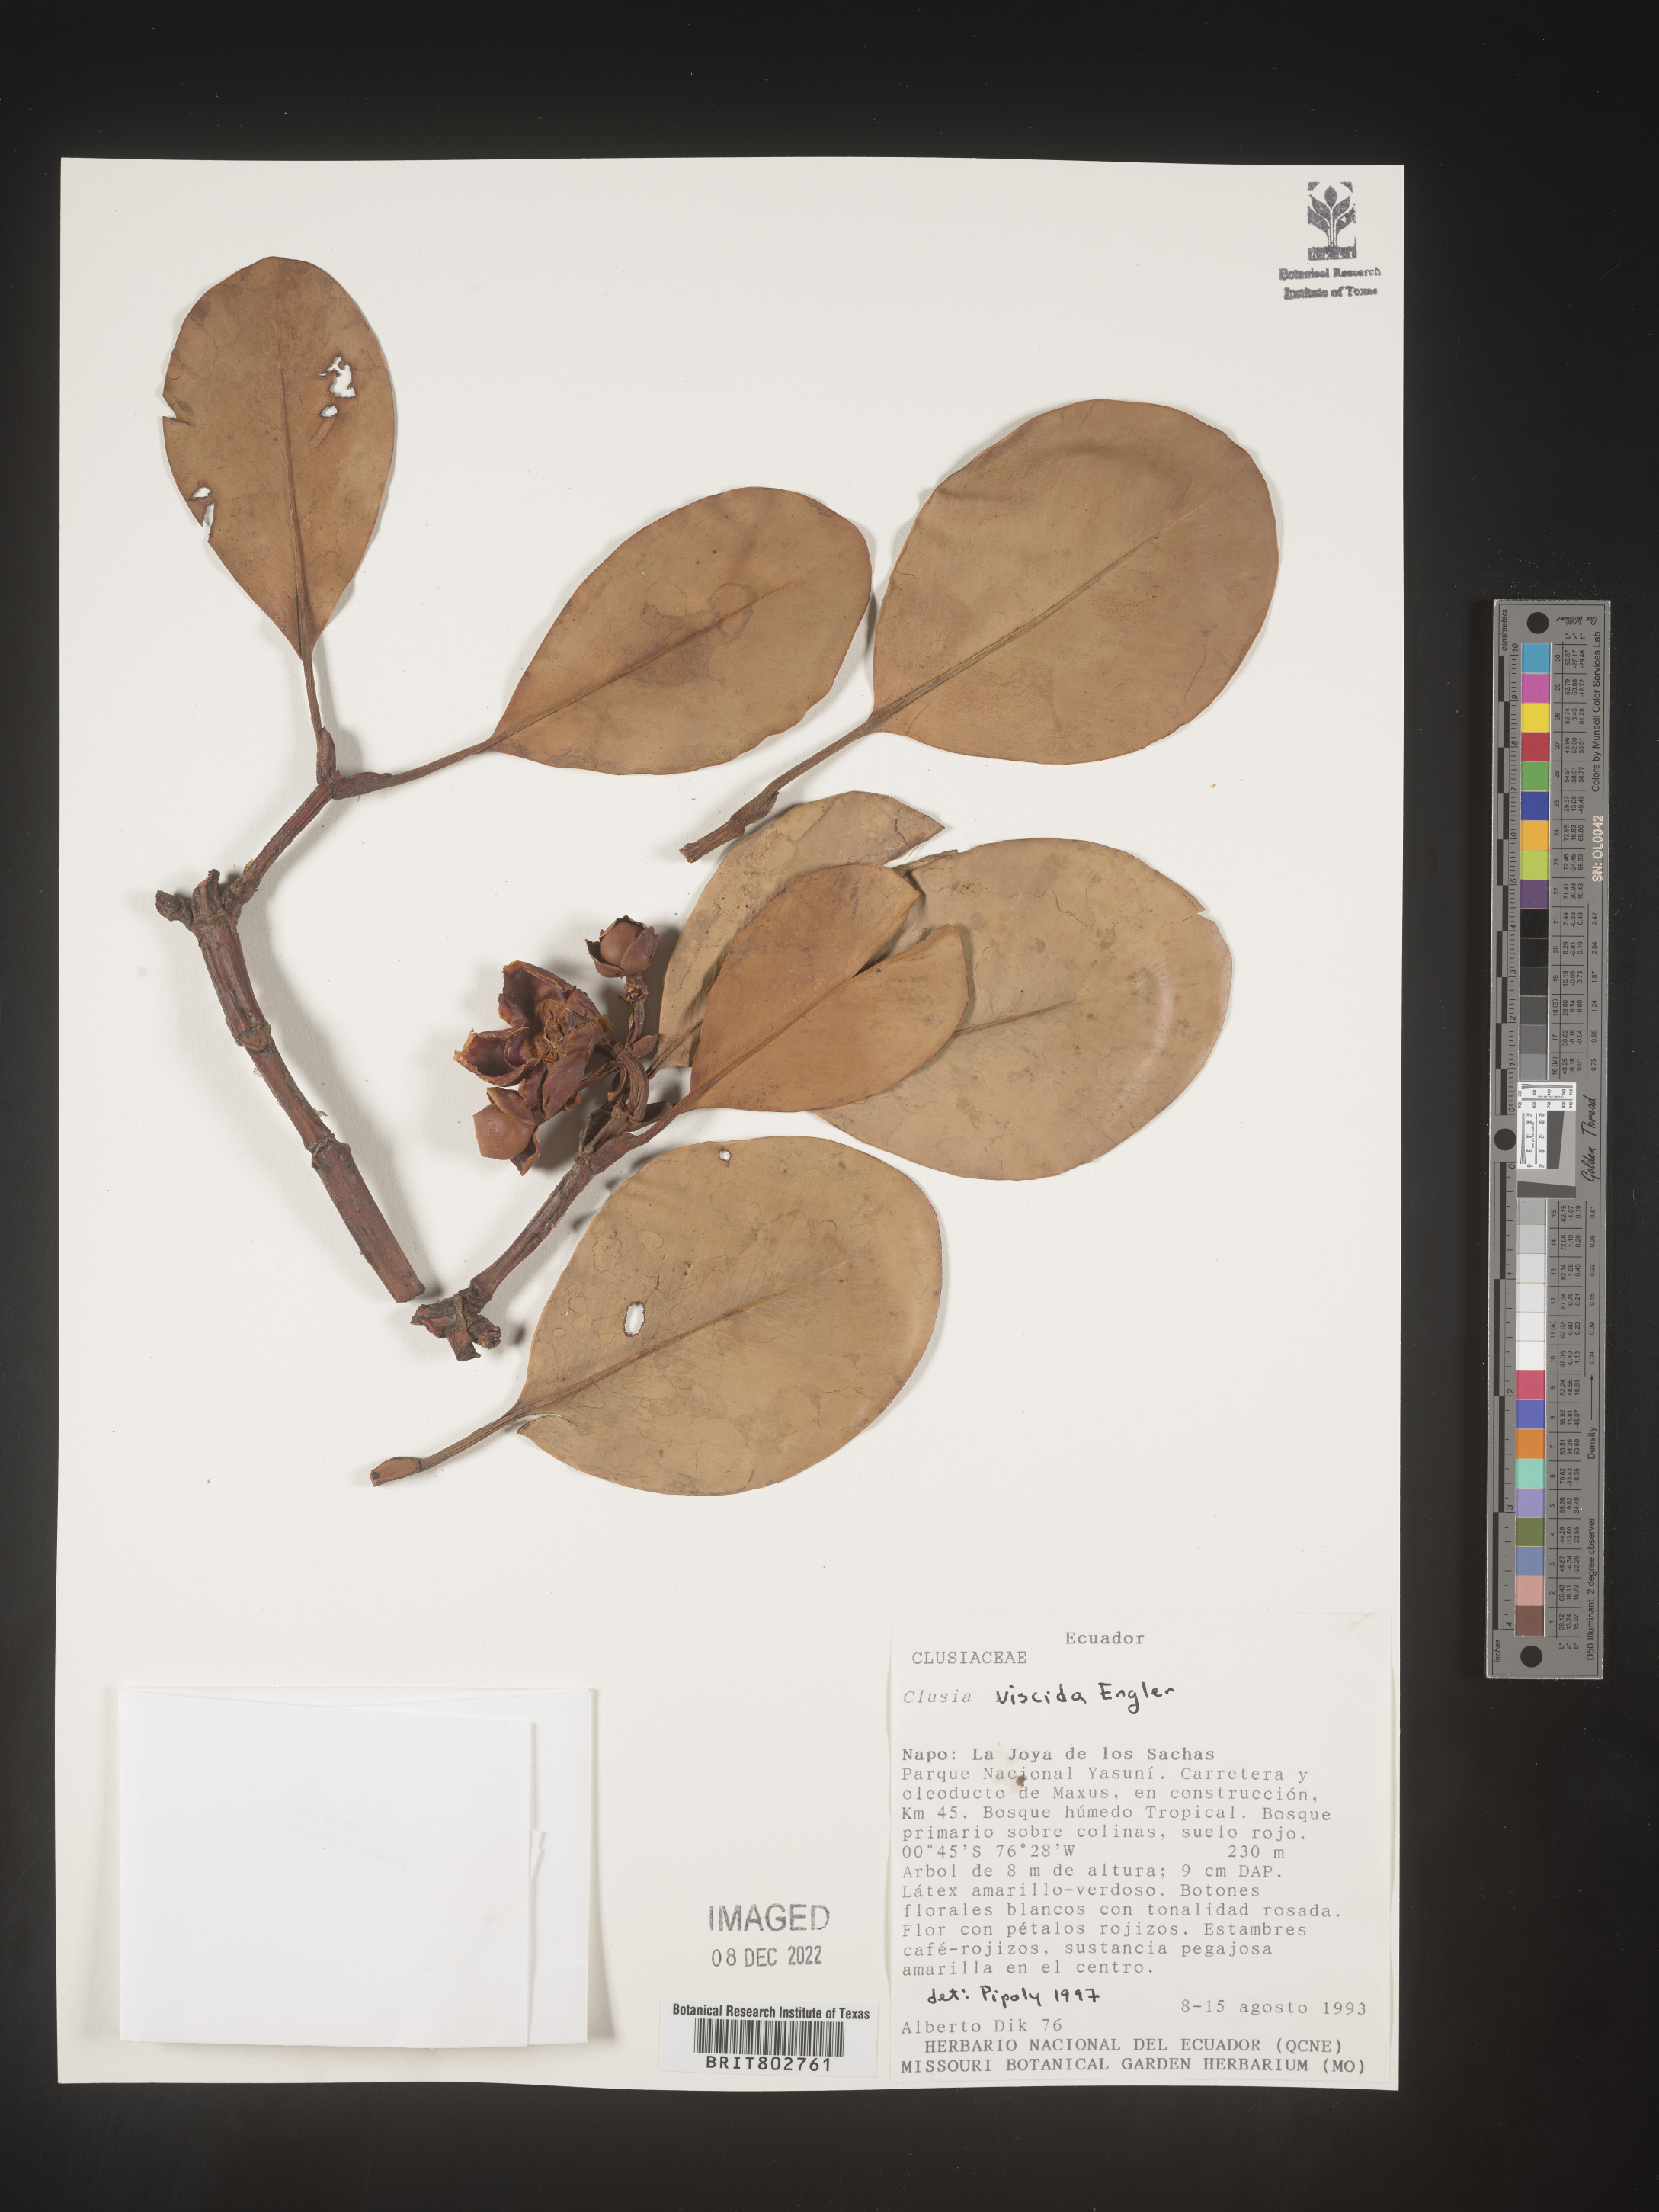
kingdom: Plantae
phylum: Tracheophyta
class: Magnoliopsida
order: Malpighiales
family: Clusiaceae
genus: Clusia
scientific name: Clusia viscida
